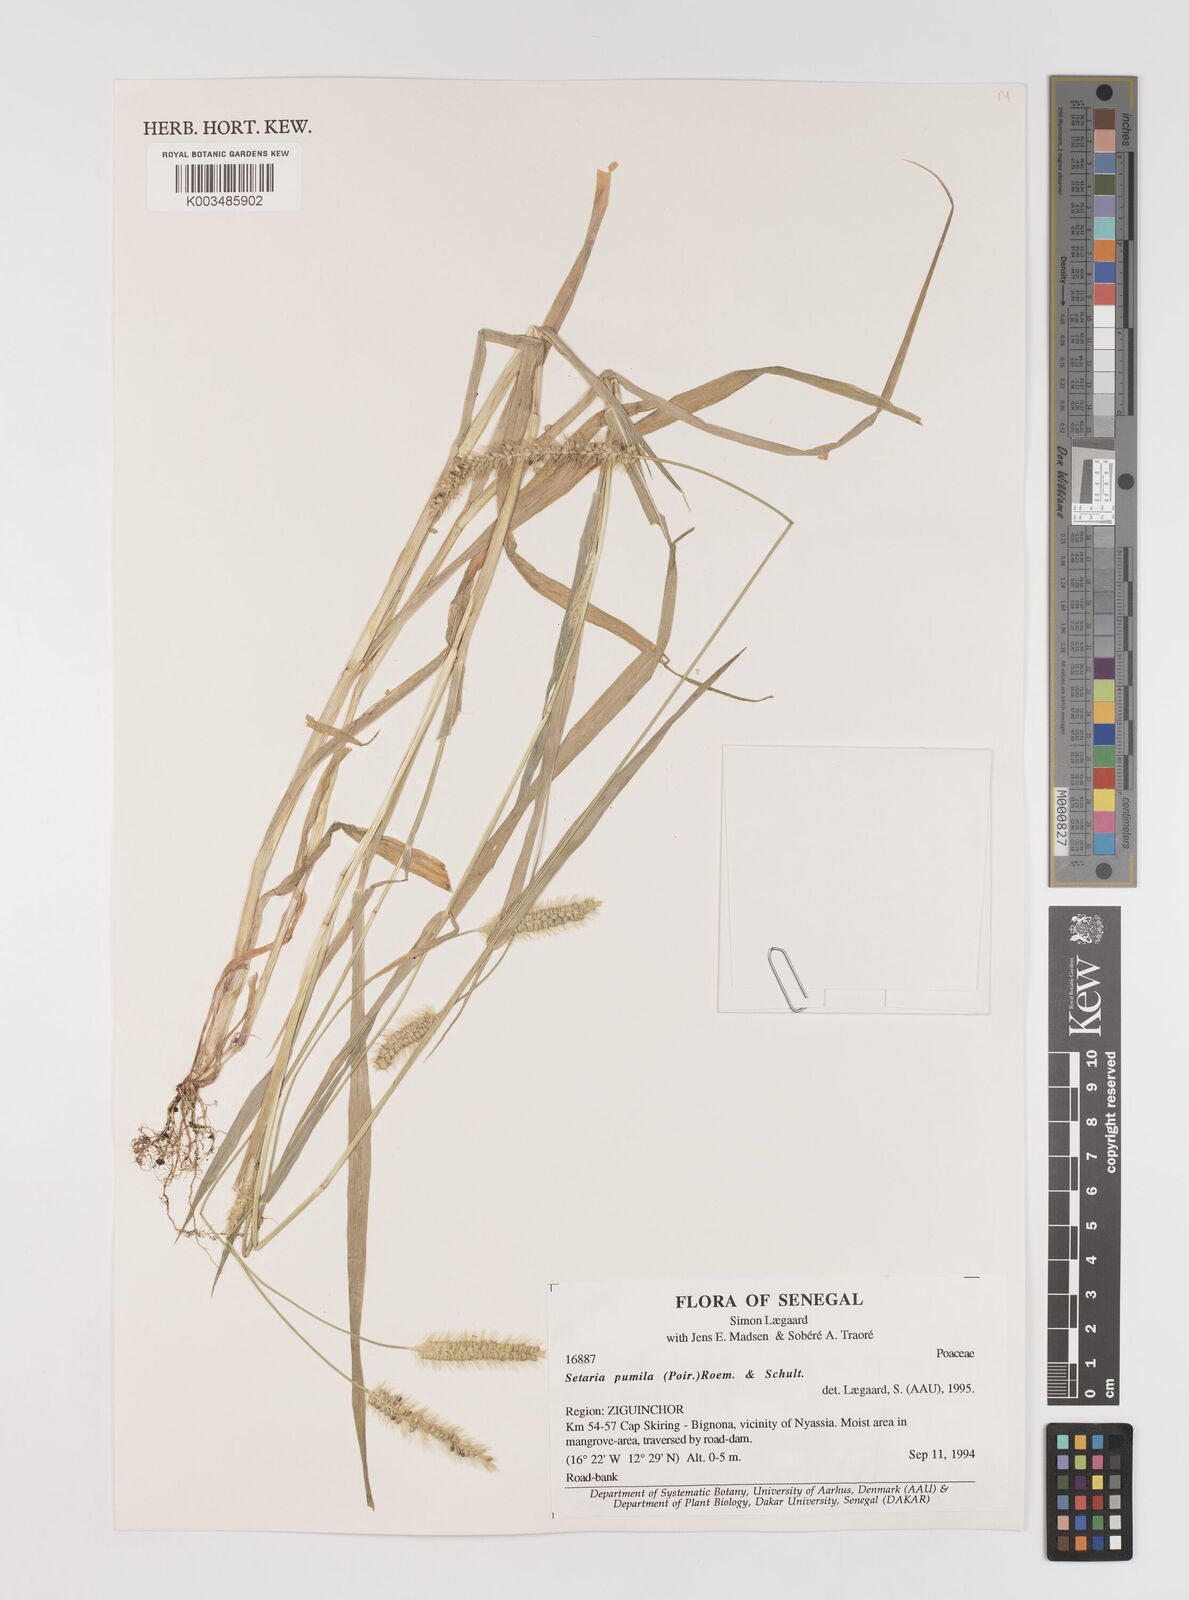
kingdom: Plantae
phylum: Tracheophyta
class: Liliopsida
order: Poales
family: Poaceae
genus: Setaria
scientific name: Setaria pumila
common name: Yellow bristle-grass
